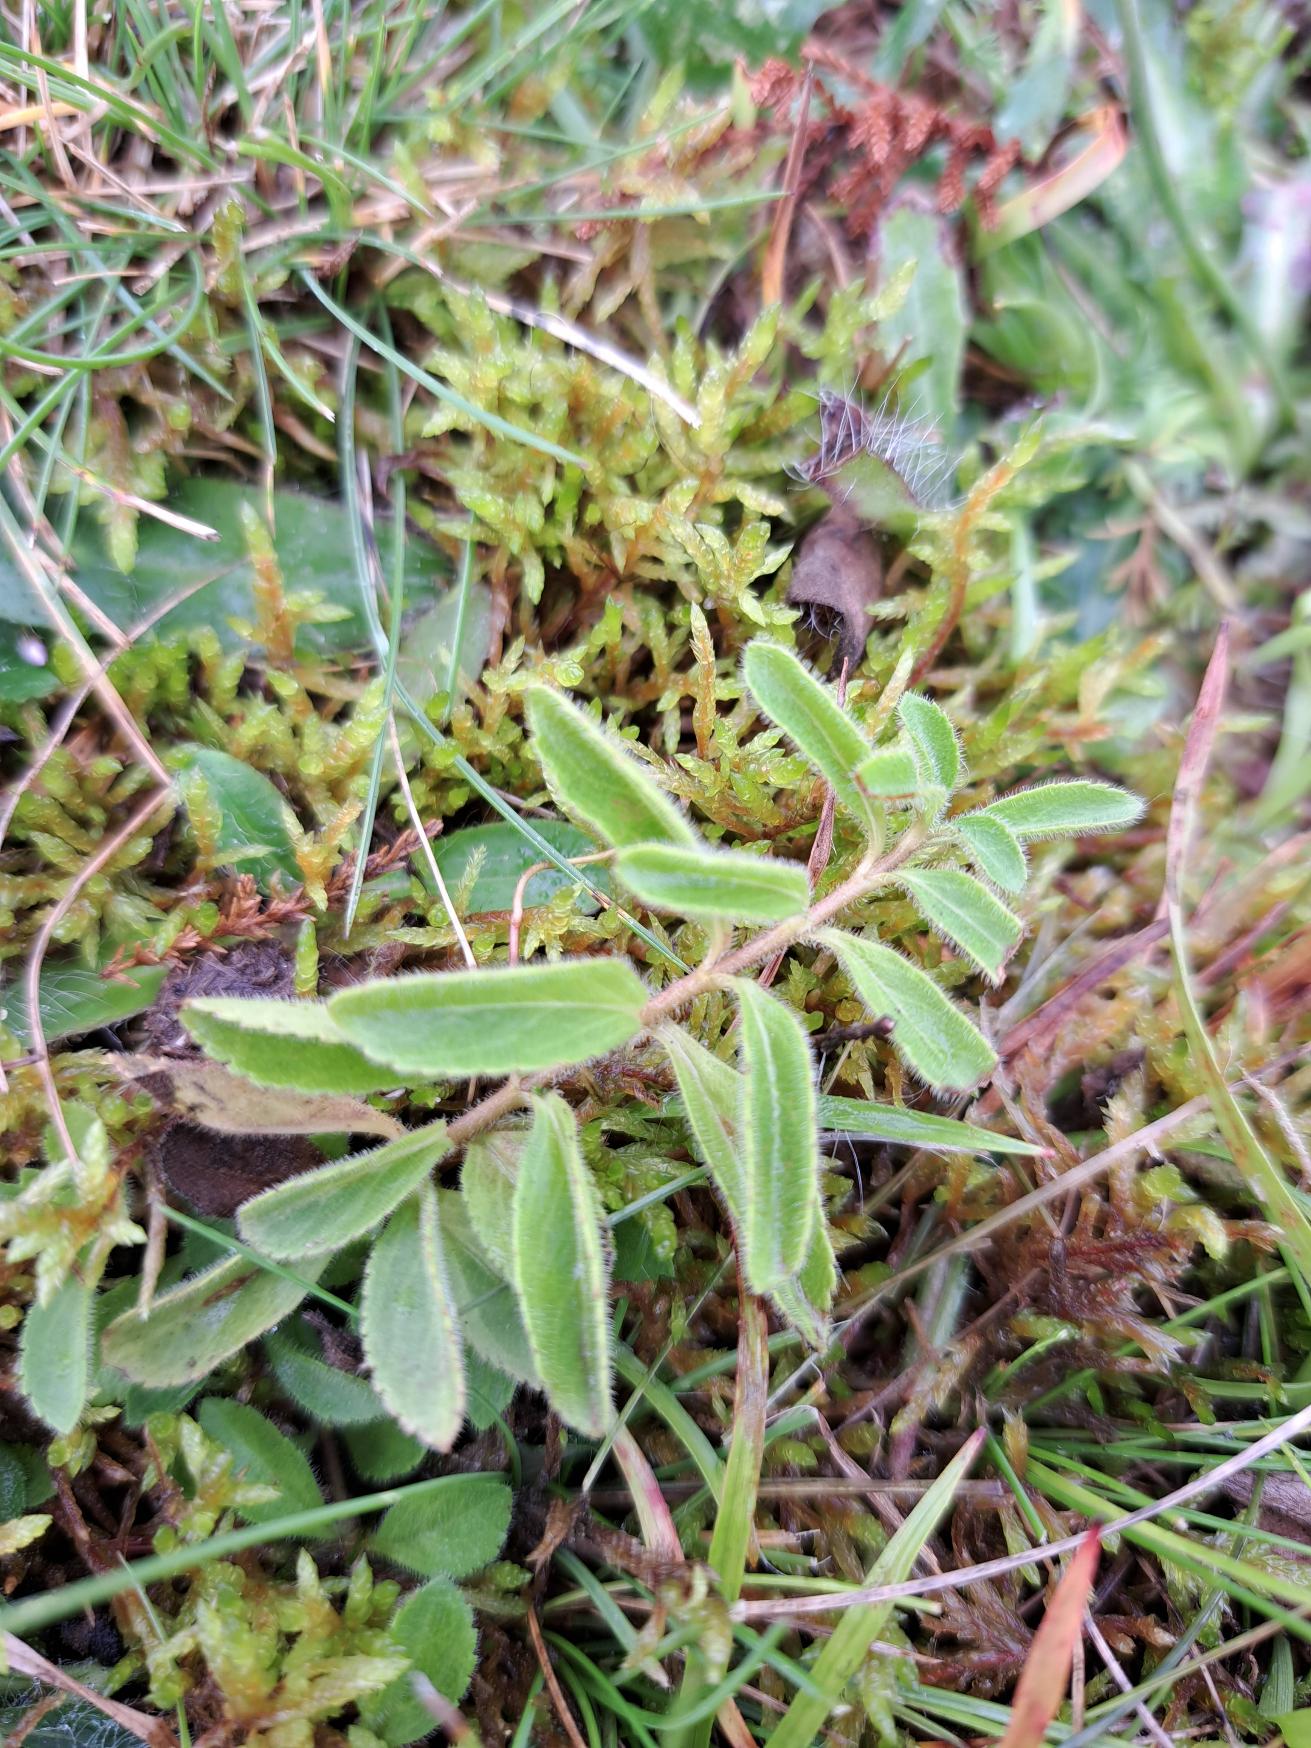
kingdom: Plantae
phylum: Tracheophyta
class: Magnoliopsida
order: Lamiales
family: Plantaginaceae
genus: Veronica
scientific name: Veronica officinalis
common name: Læge-ærenpris
